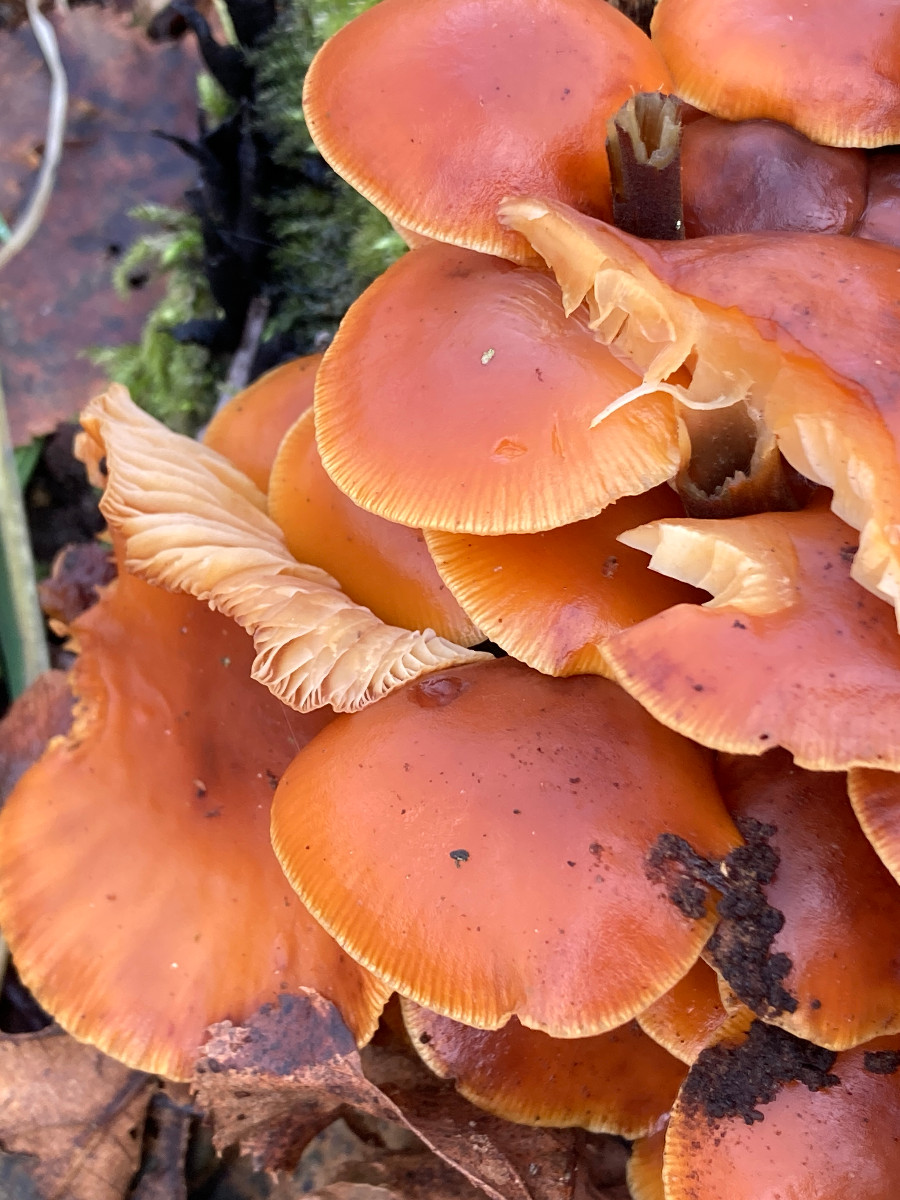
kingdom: Fungi
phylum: Basidiomycota
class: Agaricomycetes
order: Agaricales
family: Physalacriaceae
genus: Flammulina
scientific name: Flammulina velutipes
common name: gul fløjlsfod
